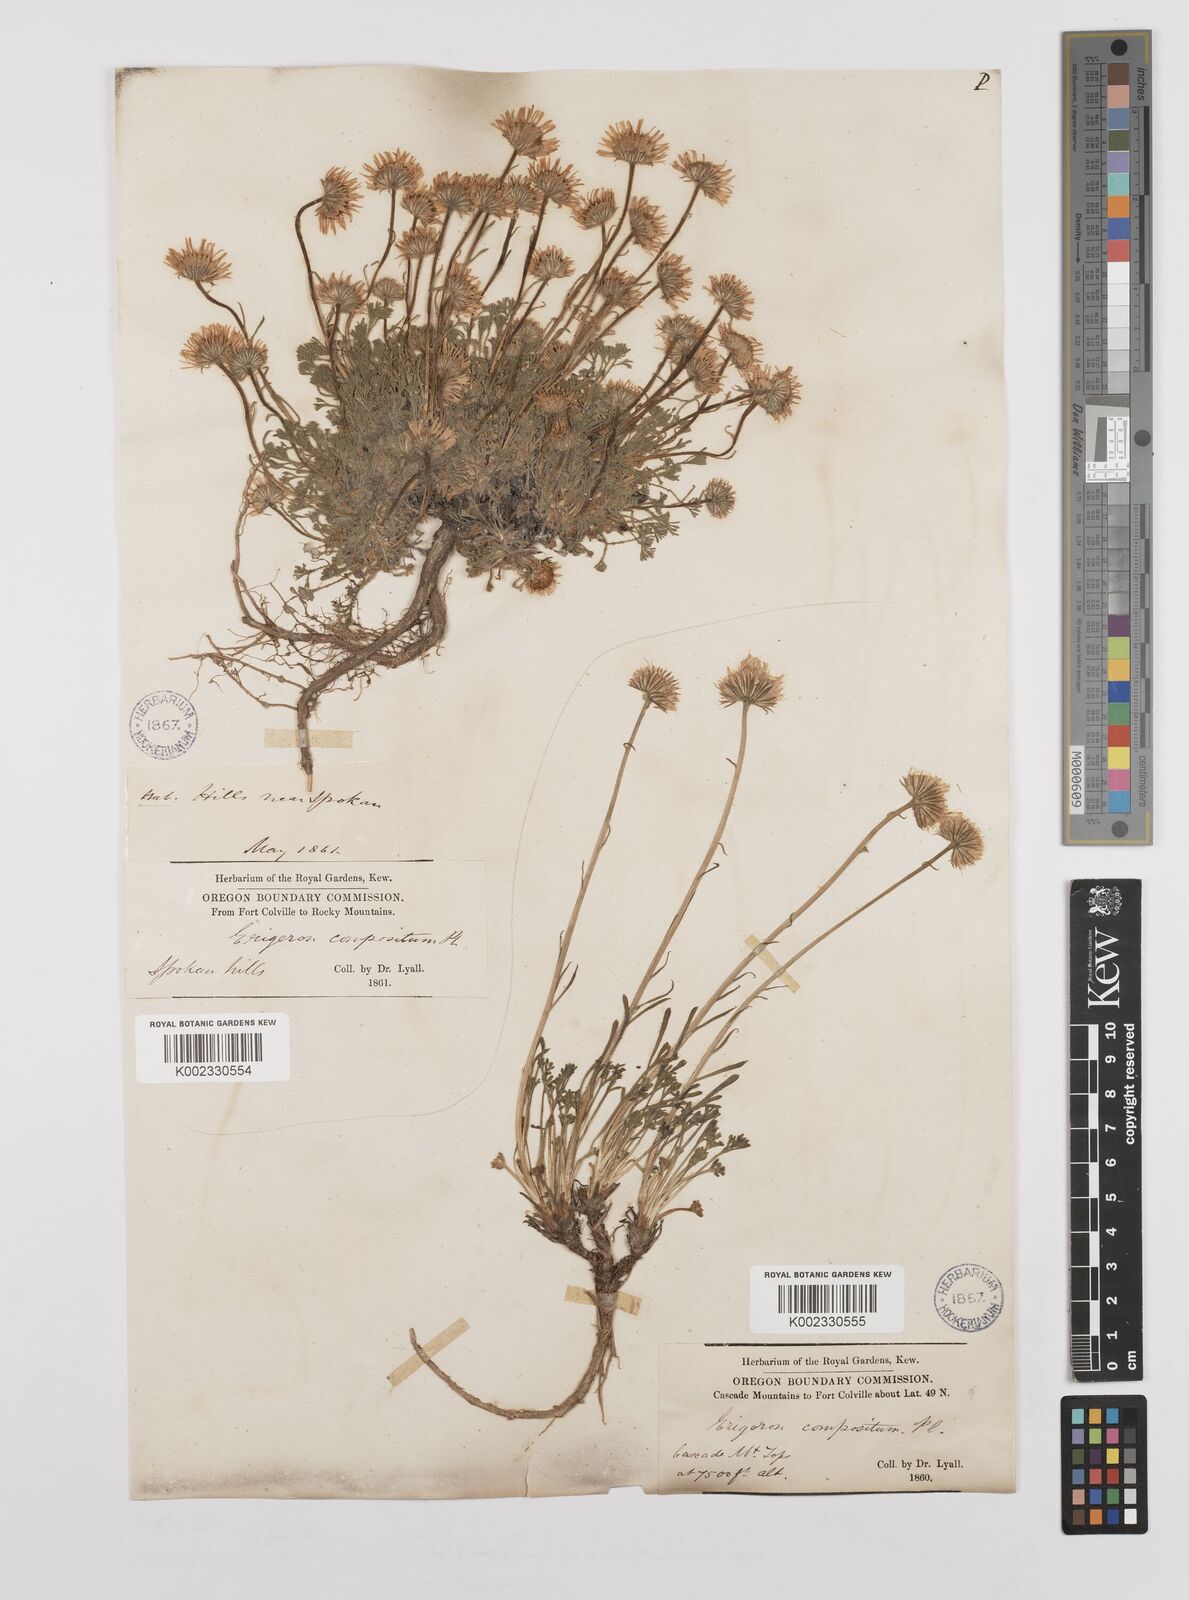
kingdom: Plantae
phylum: Tracheophyta
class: Magnoliopsida
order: Asterales
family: Asteraceae
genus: Erigeron
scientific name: Erigeron compositus
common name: Dwarf mountain fleabane
